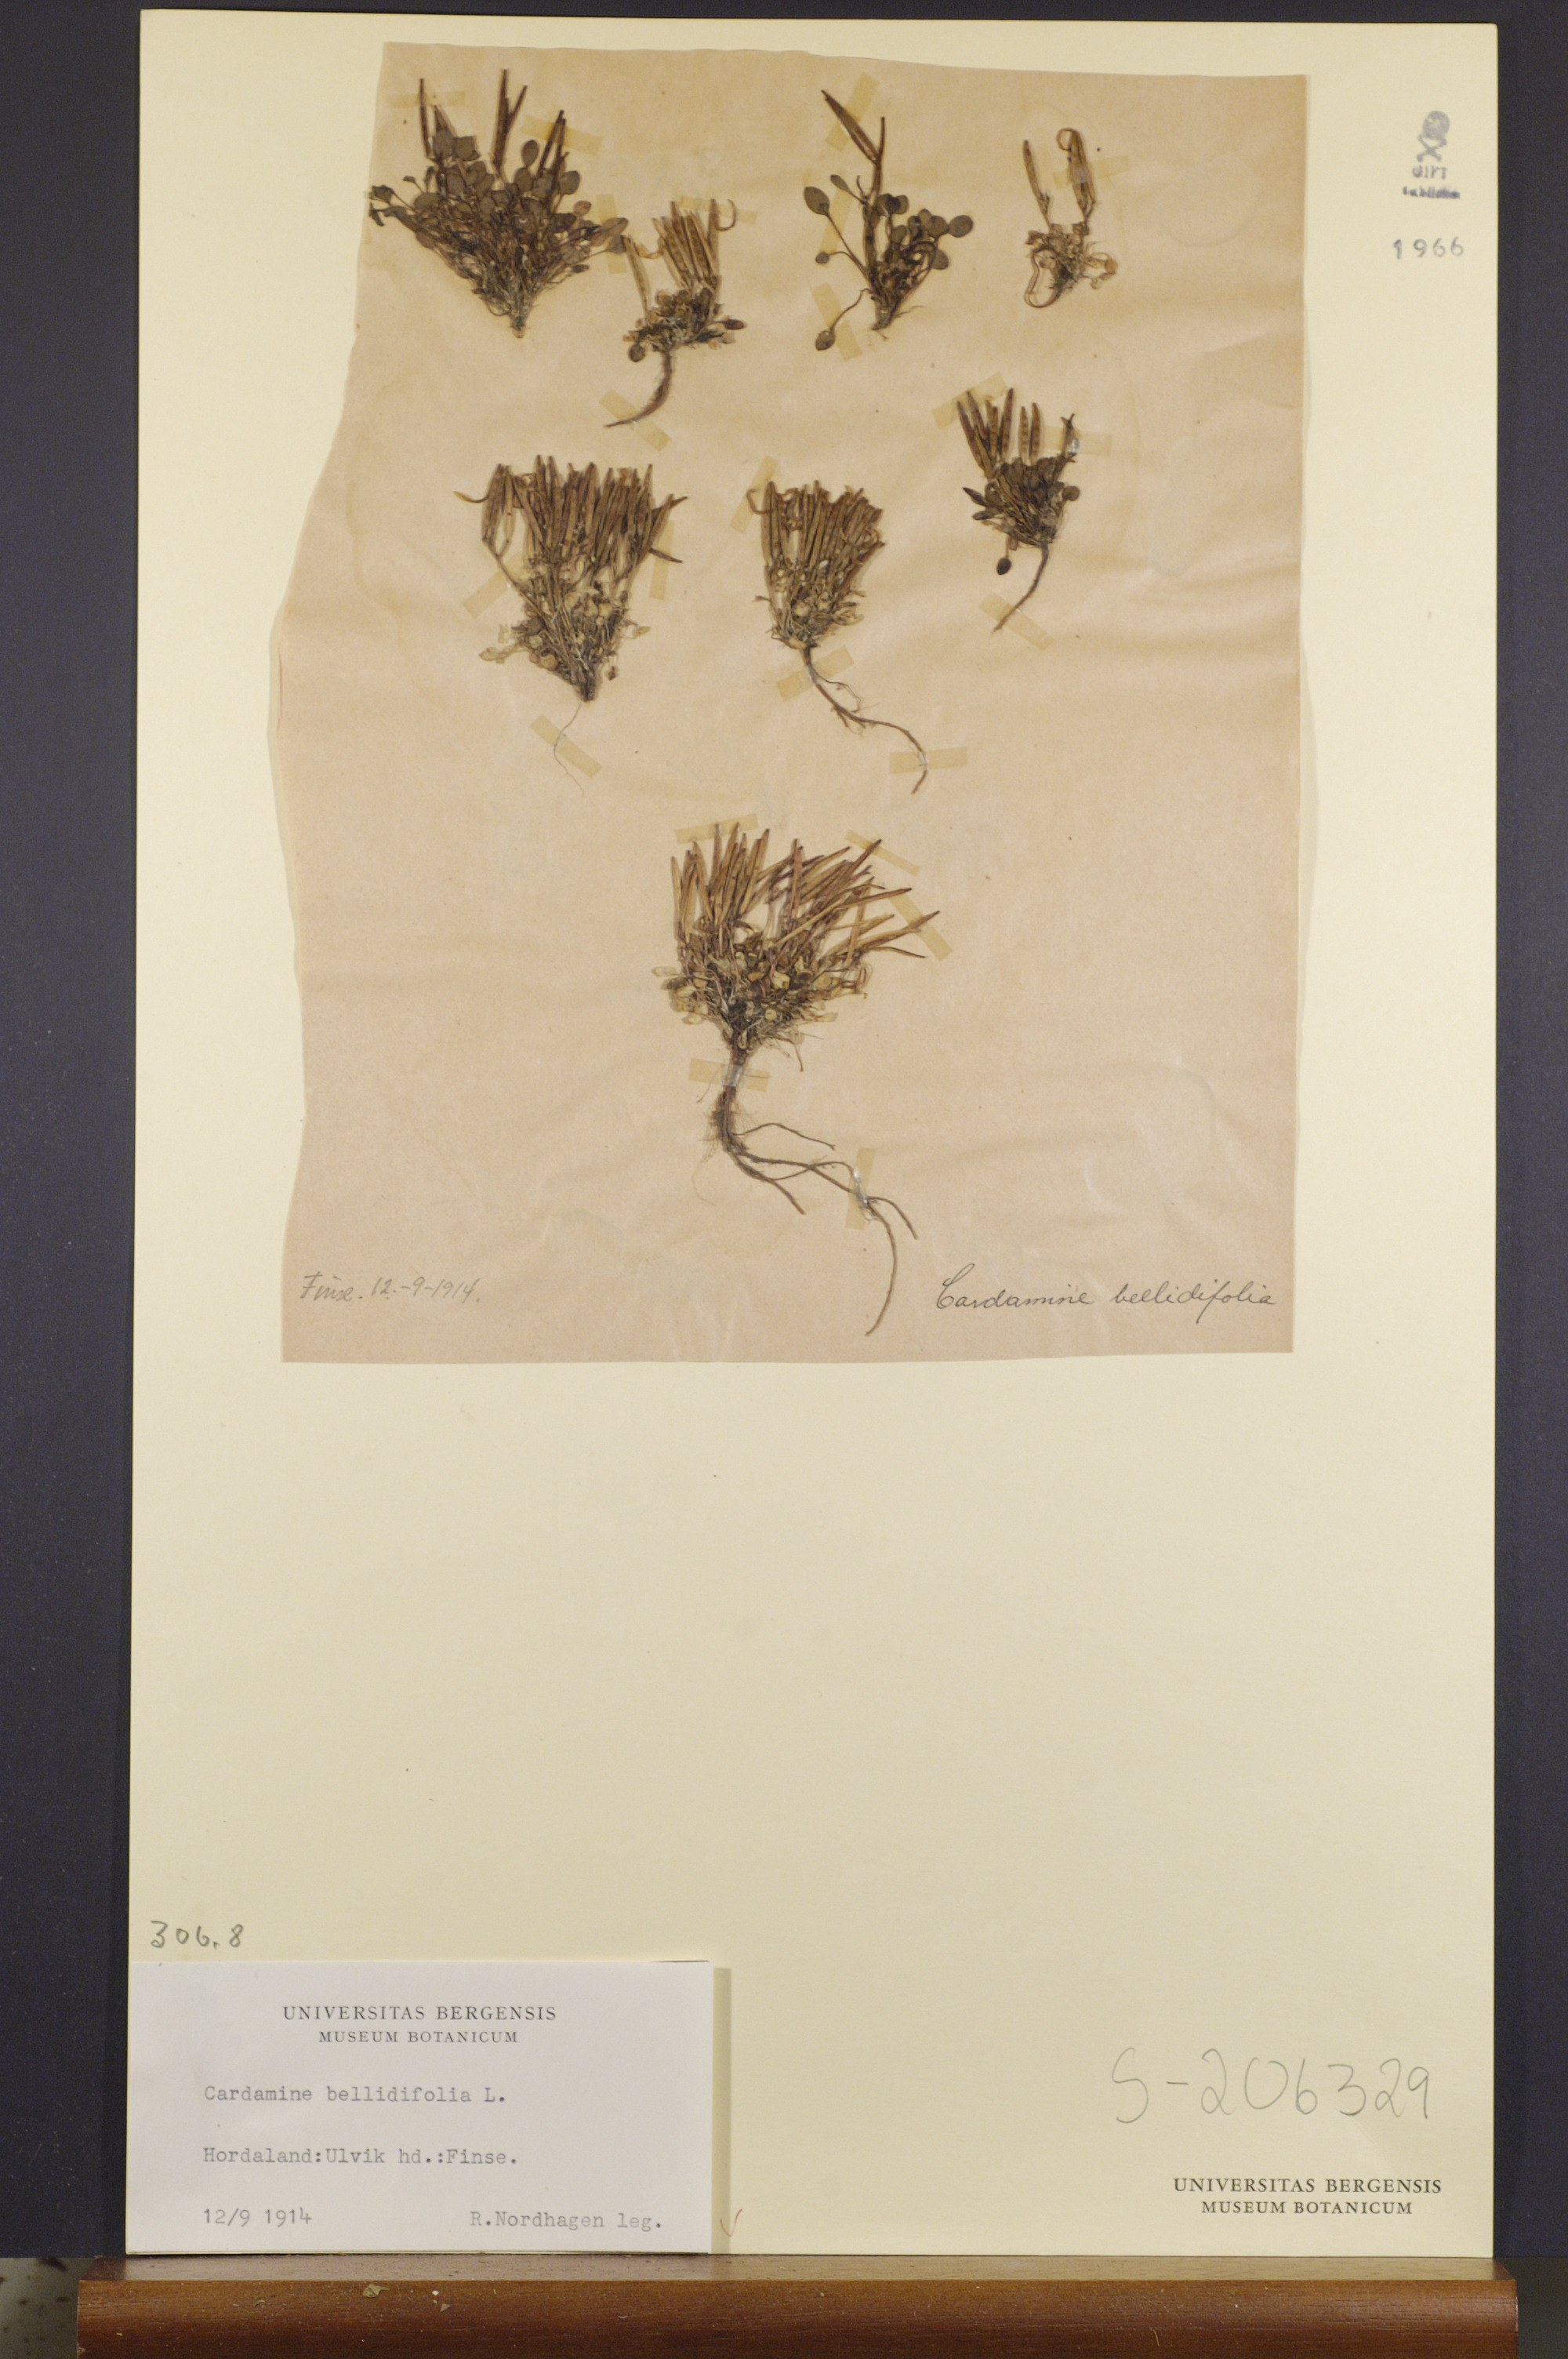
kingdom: Plantae
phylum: Tracheophyta
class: Magnoliopsida
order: Brassicales
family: Brassicaceae
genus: Cardamine
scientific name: Cardamine bellidifolia
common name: Alpine bittercress
